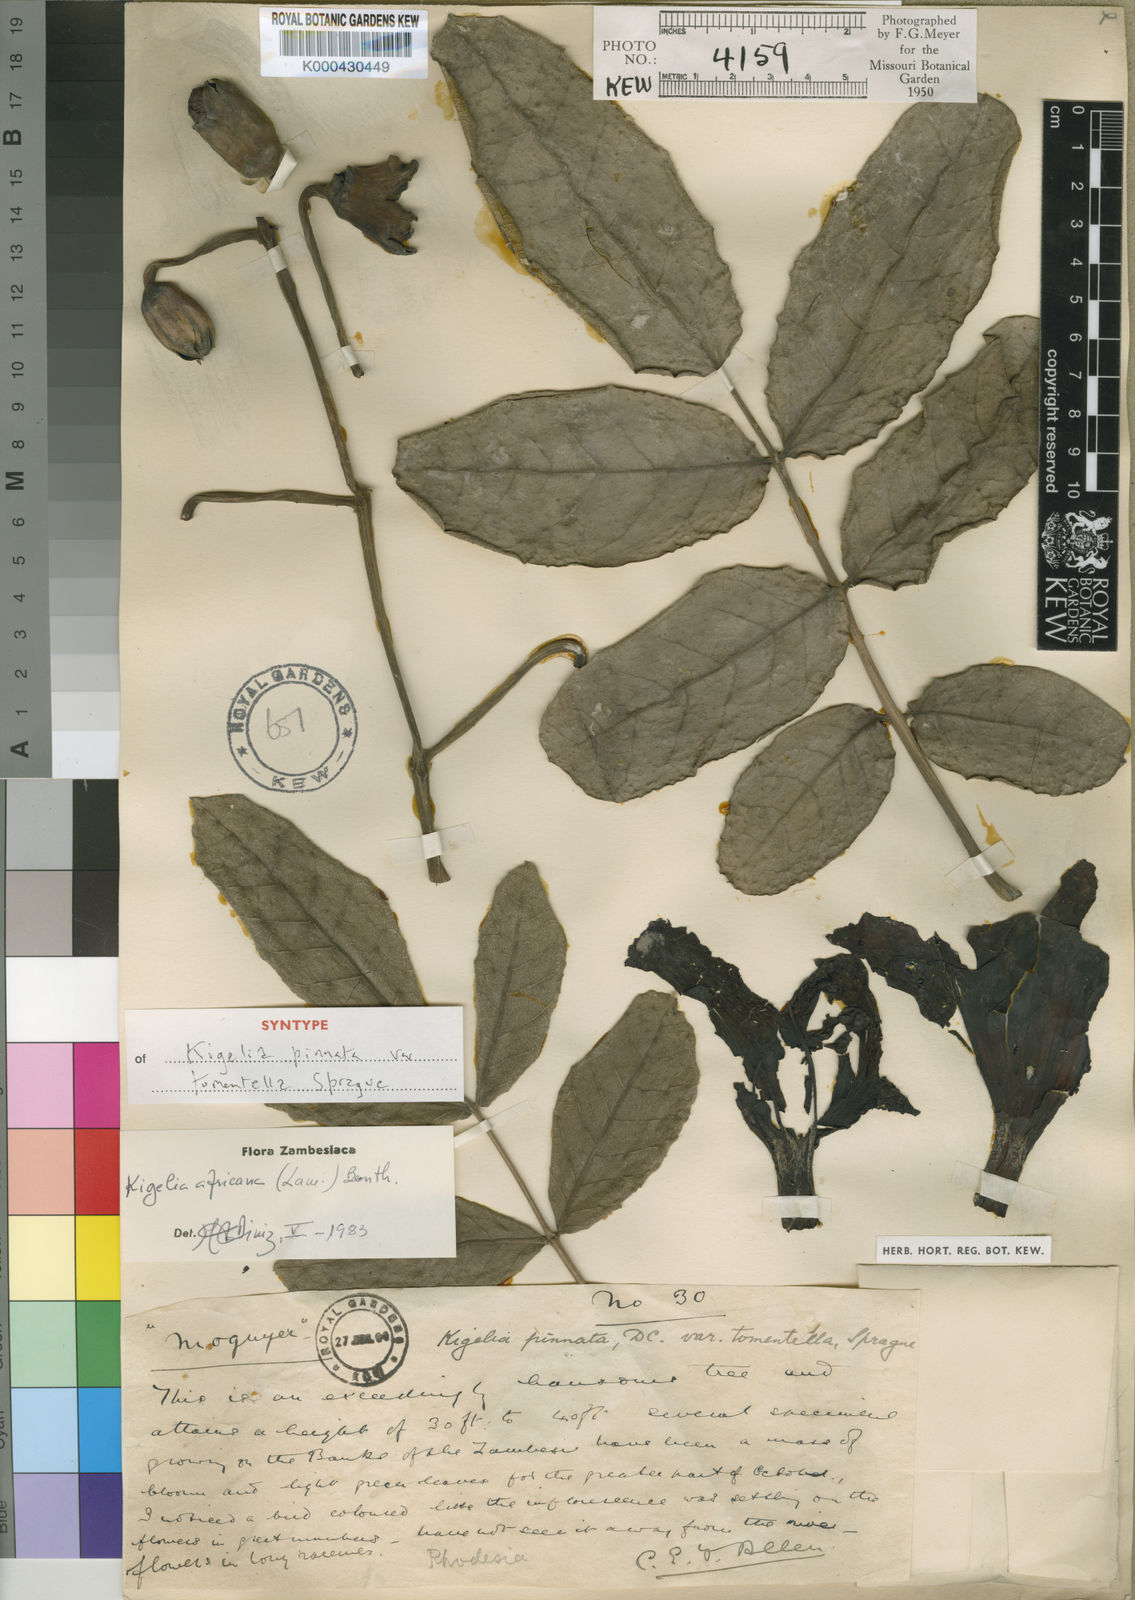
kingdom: Plantae
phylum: Tracheophyta
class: Magnoliopsida
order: Lamiales
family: Bignoniaceae
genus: Kigelia
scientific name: Kigelia africana
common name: Sausage tree
